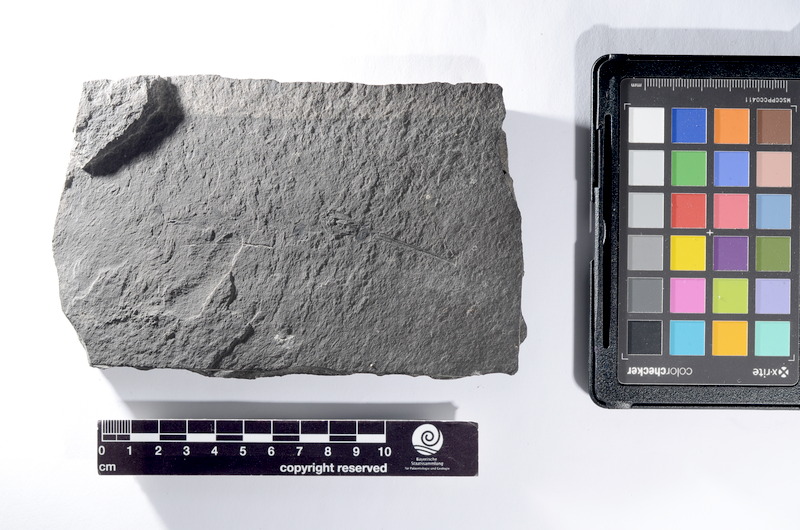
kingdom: Animalia
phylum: Chordata
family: Saurichthyidae
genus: Saurichthys
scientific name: Saurichthys
